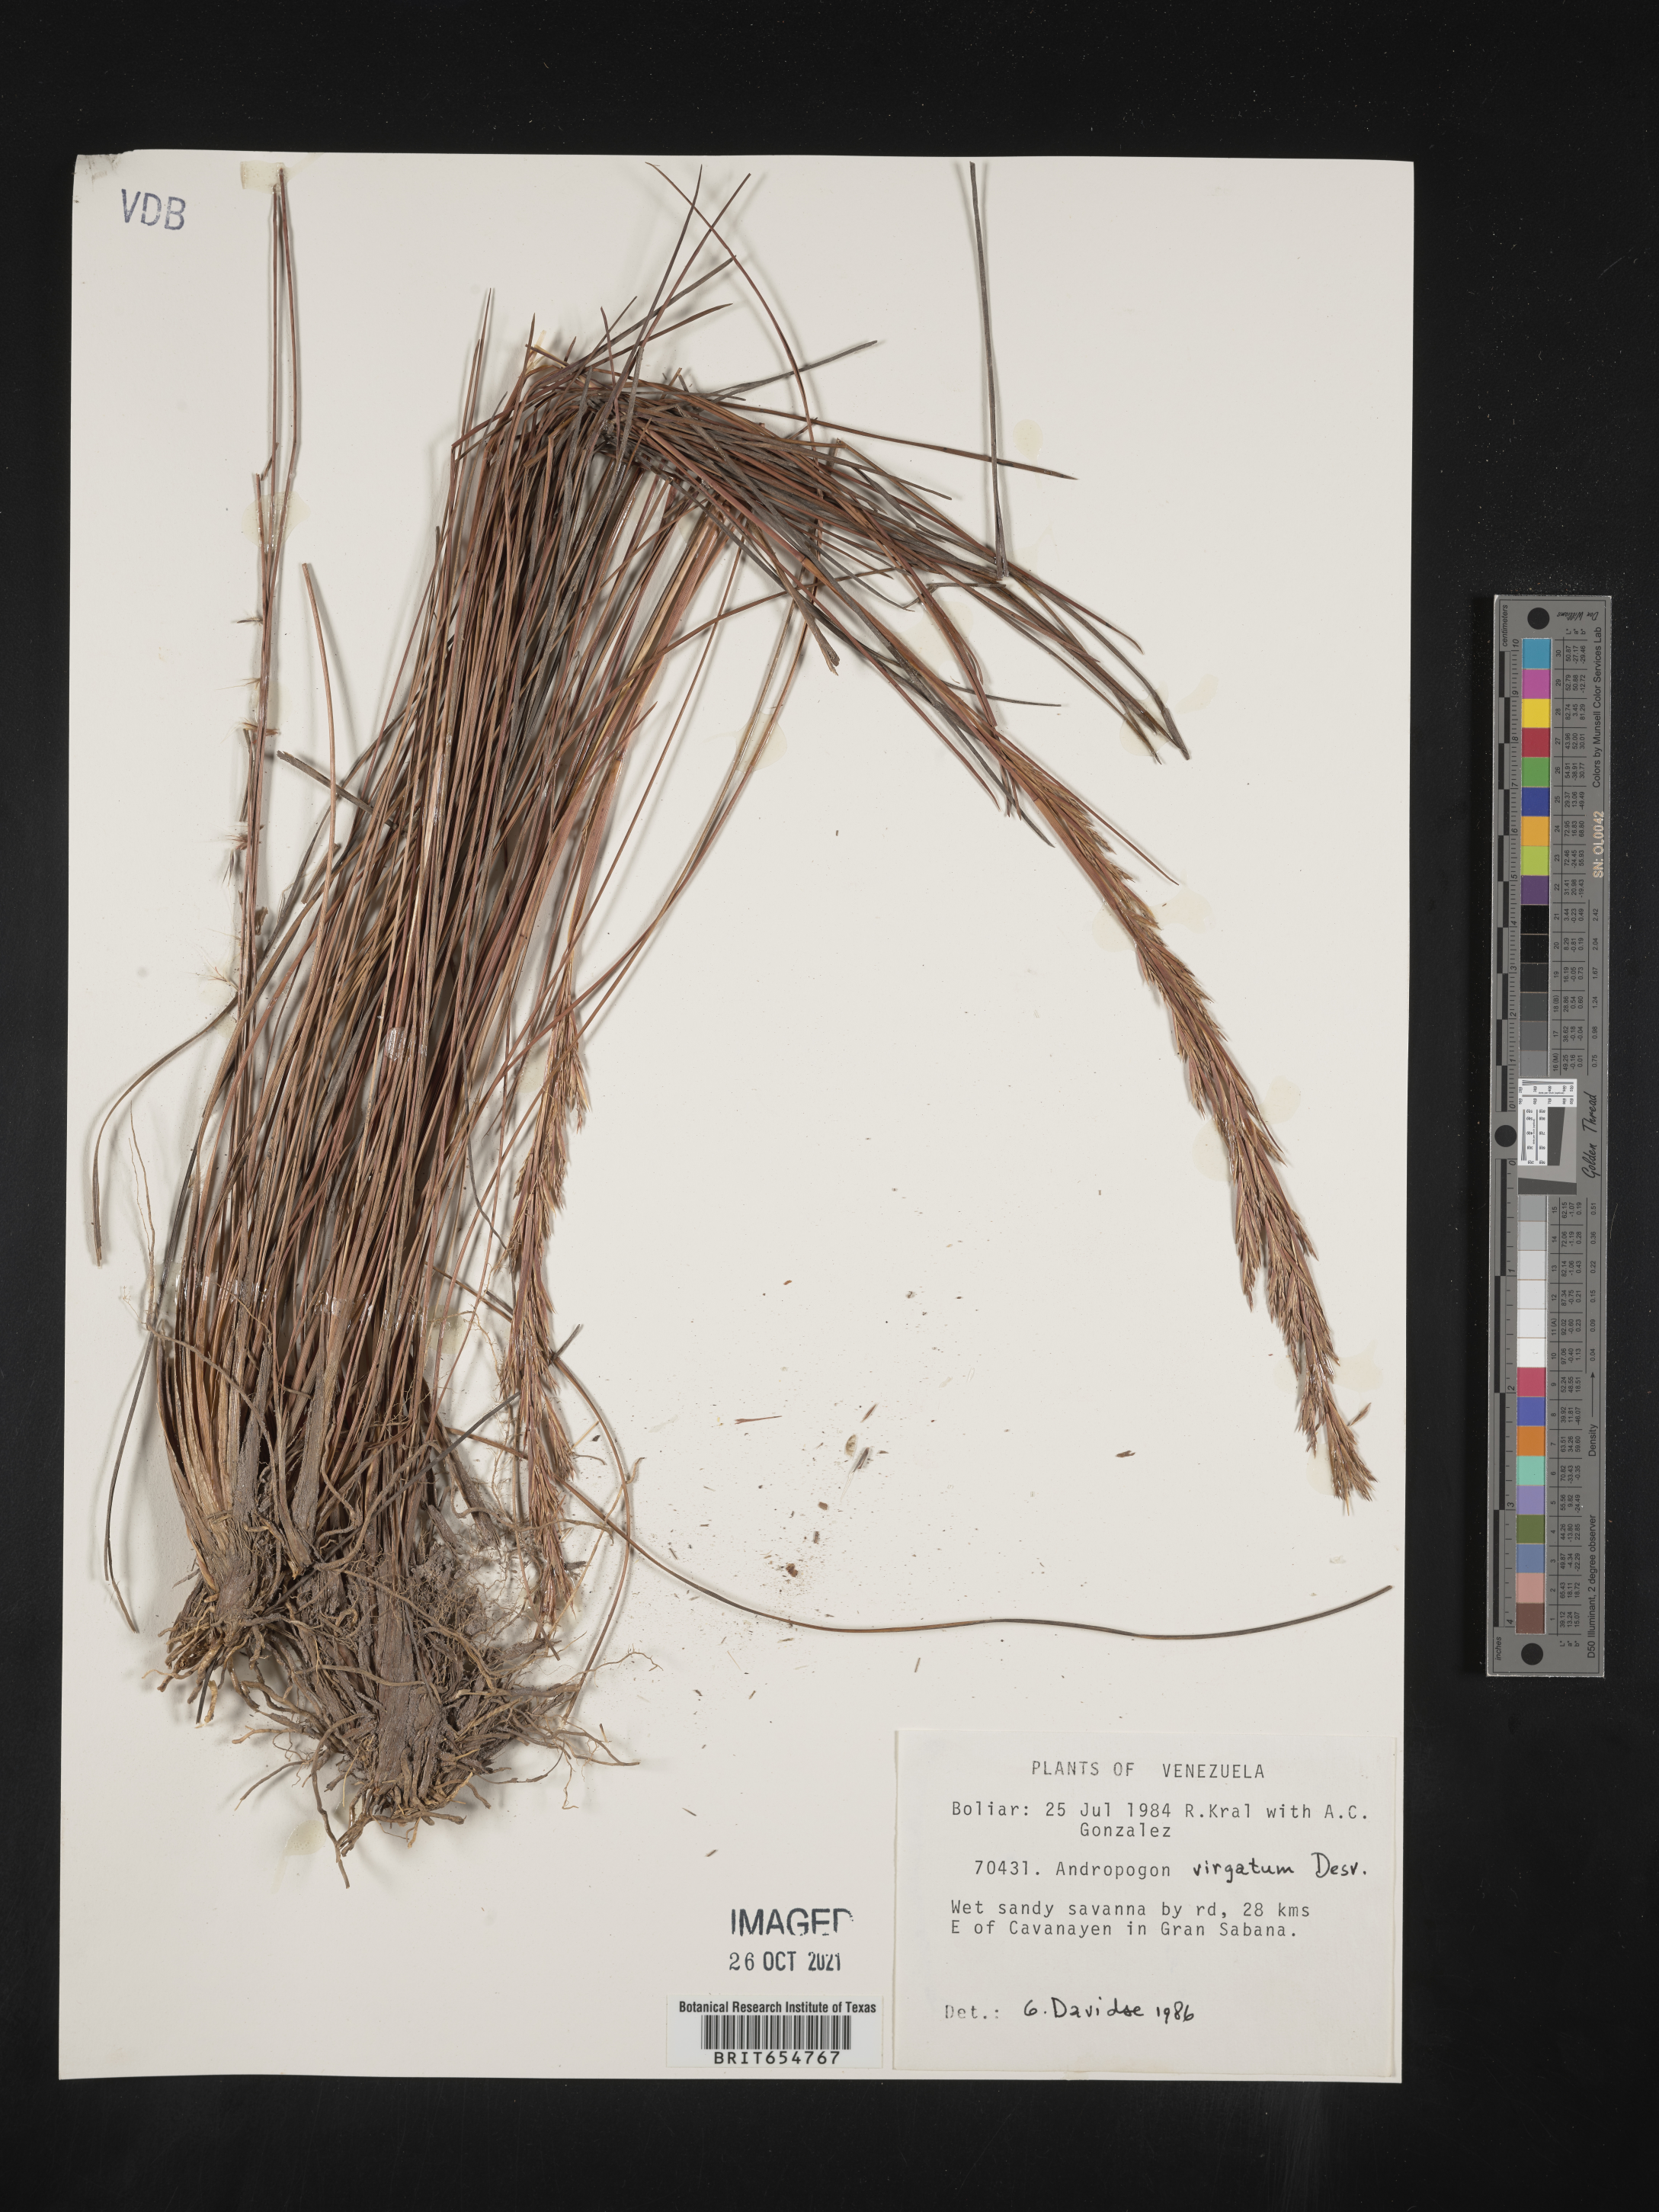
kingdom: Plantae
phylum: Tracheophyta
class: Liliopsida
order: Poales
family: Poaceae
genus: Andropogon
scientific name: Andropogon
